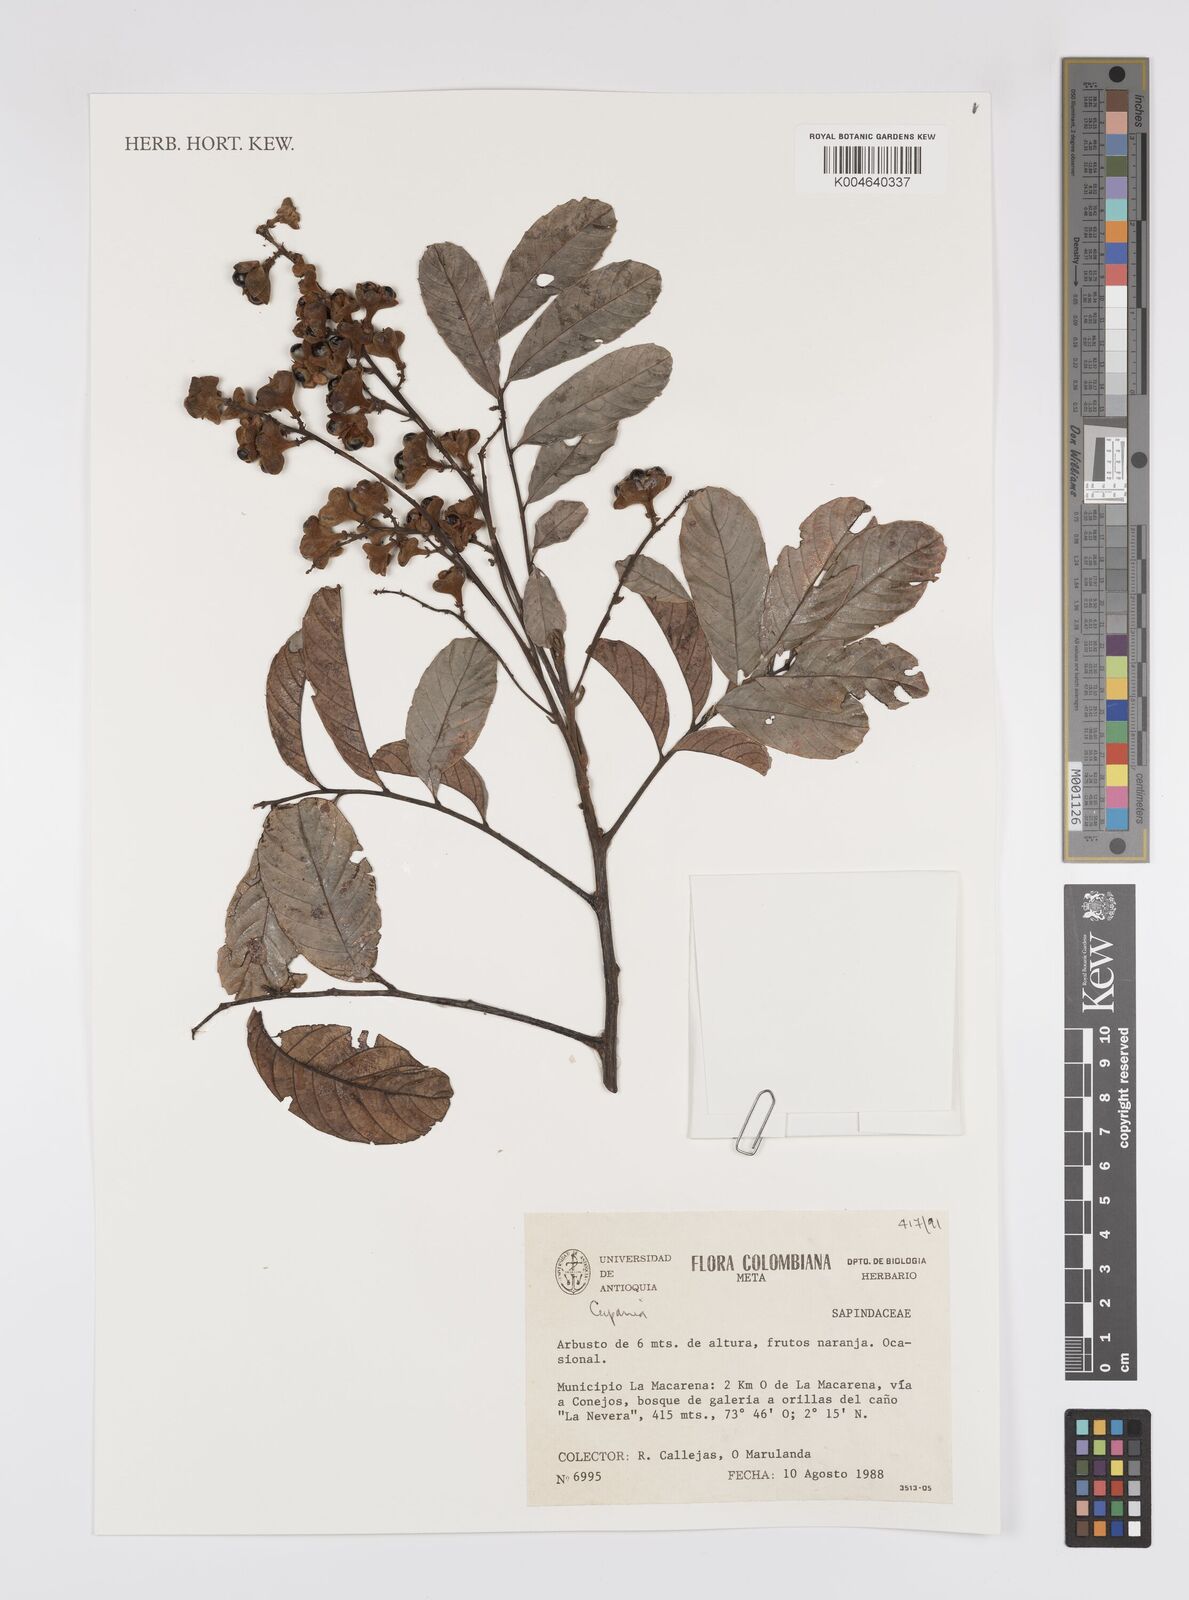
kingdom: Plantae
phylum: Tracheophyta
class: Magnoliopsida
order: Sapindales
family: Sapindaceae
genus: Cupania
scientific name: Cupania
